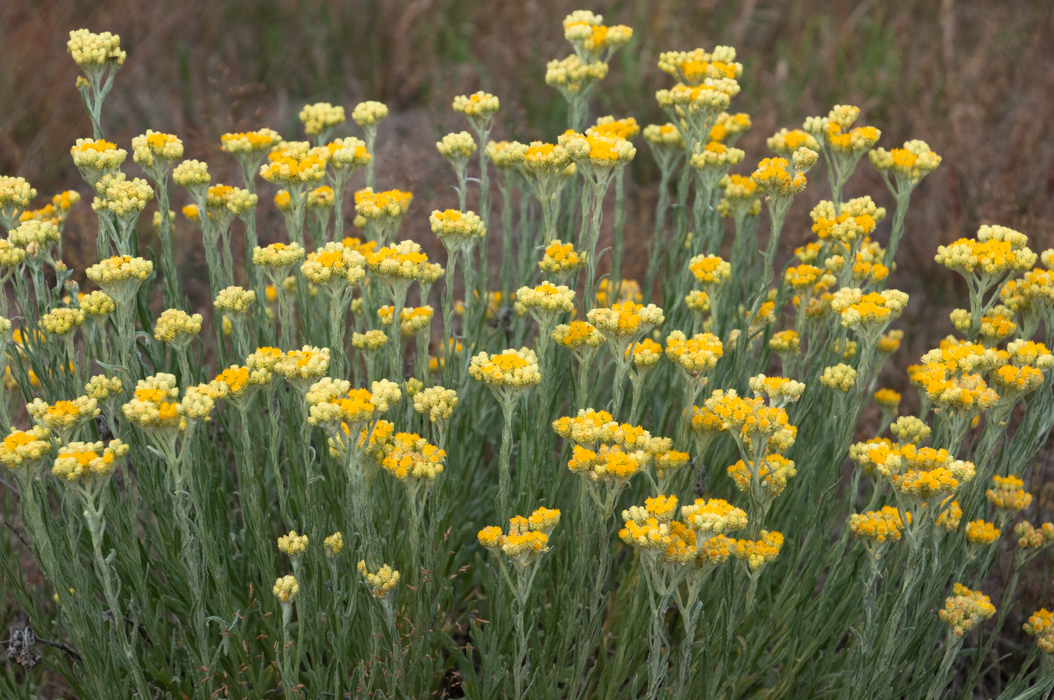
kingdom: Plantae
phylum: Tracheophyta
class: Magnoliopsida
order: Asterales
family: Asteraceae
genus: Helichrysum
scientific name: Helichrysum arenarium
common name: Strawflower
